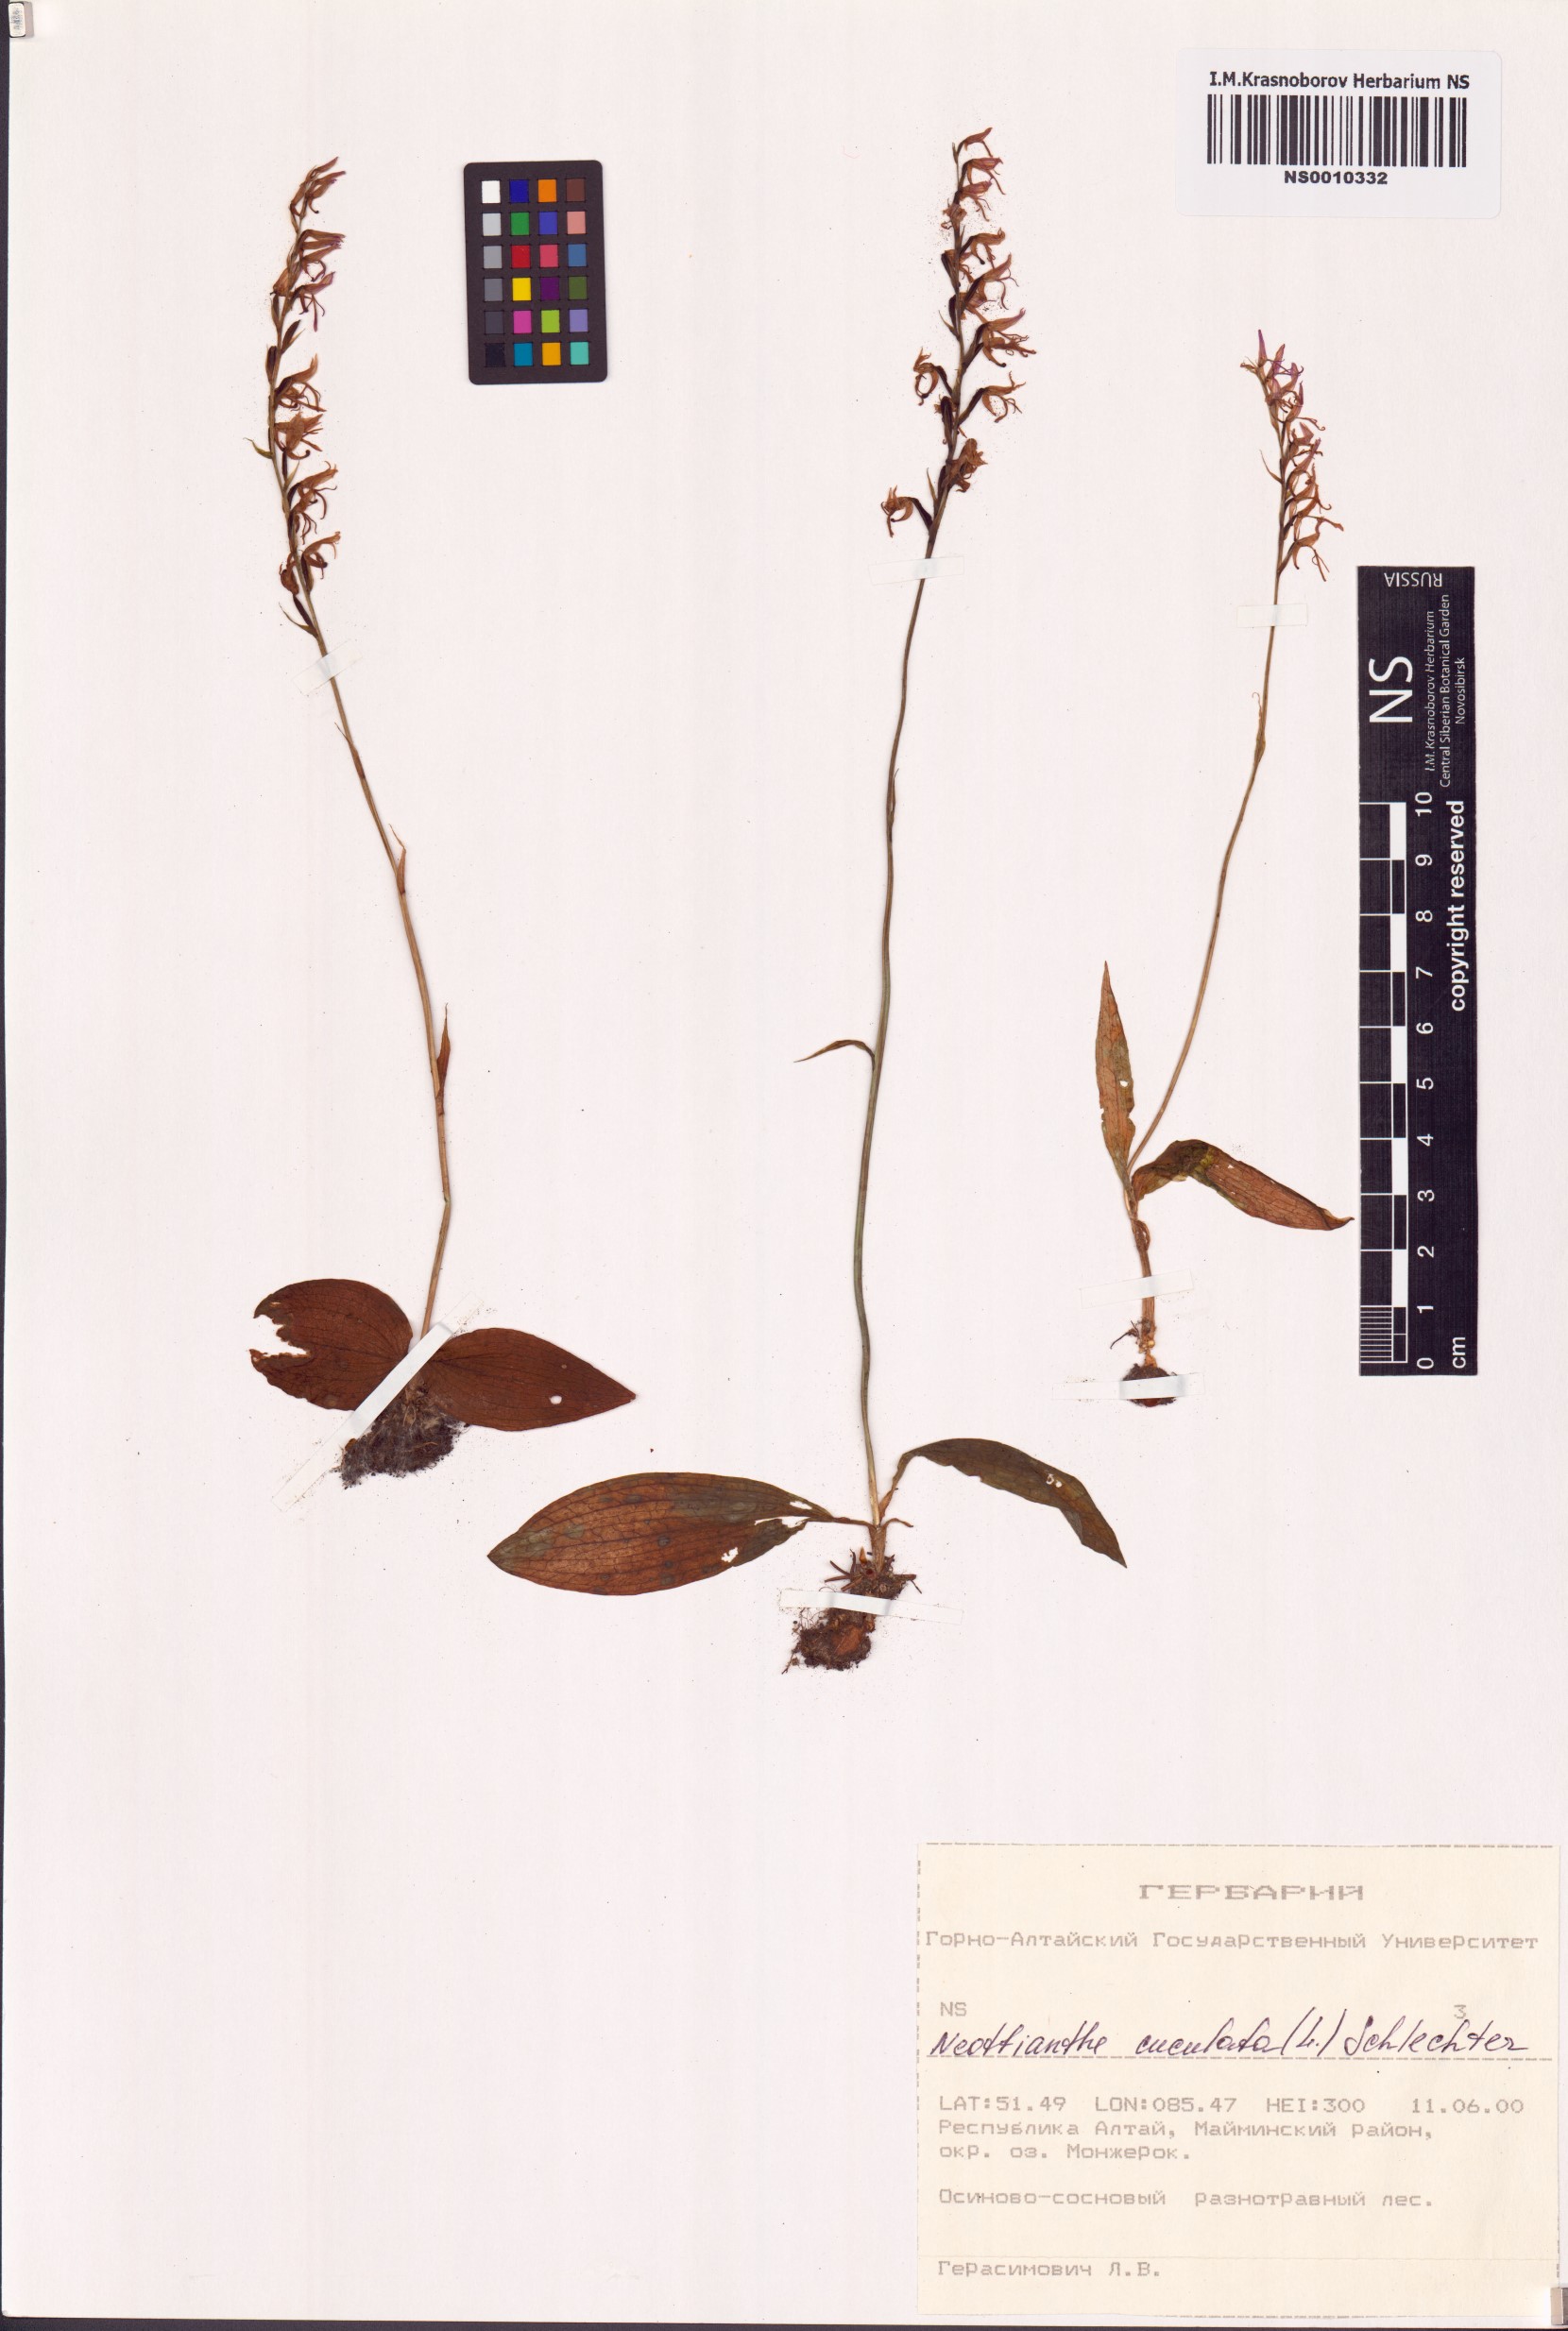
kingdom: Plantae
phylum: Tracheophyta
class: Liliopsida
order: Asparagales
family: Orchidaceae
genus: Hemipilia
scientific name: Hemipilia cucullata
